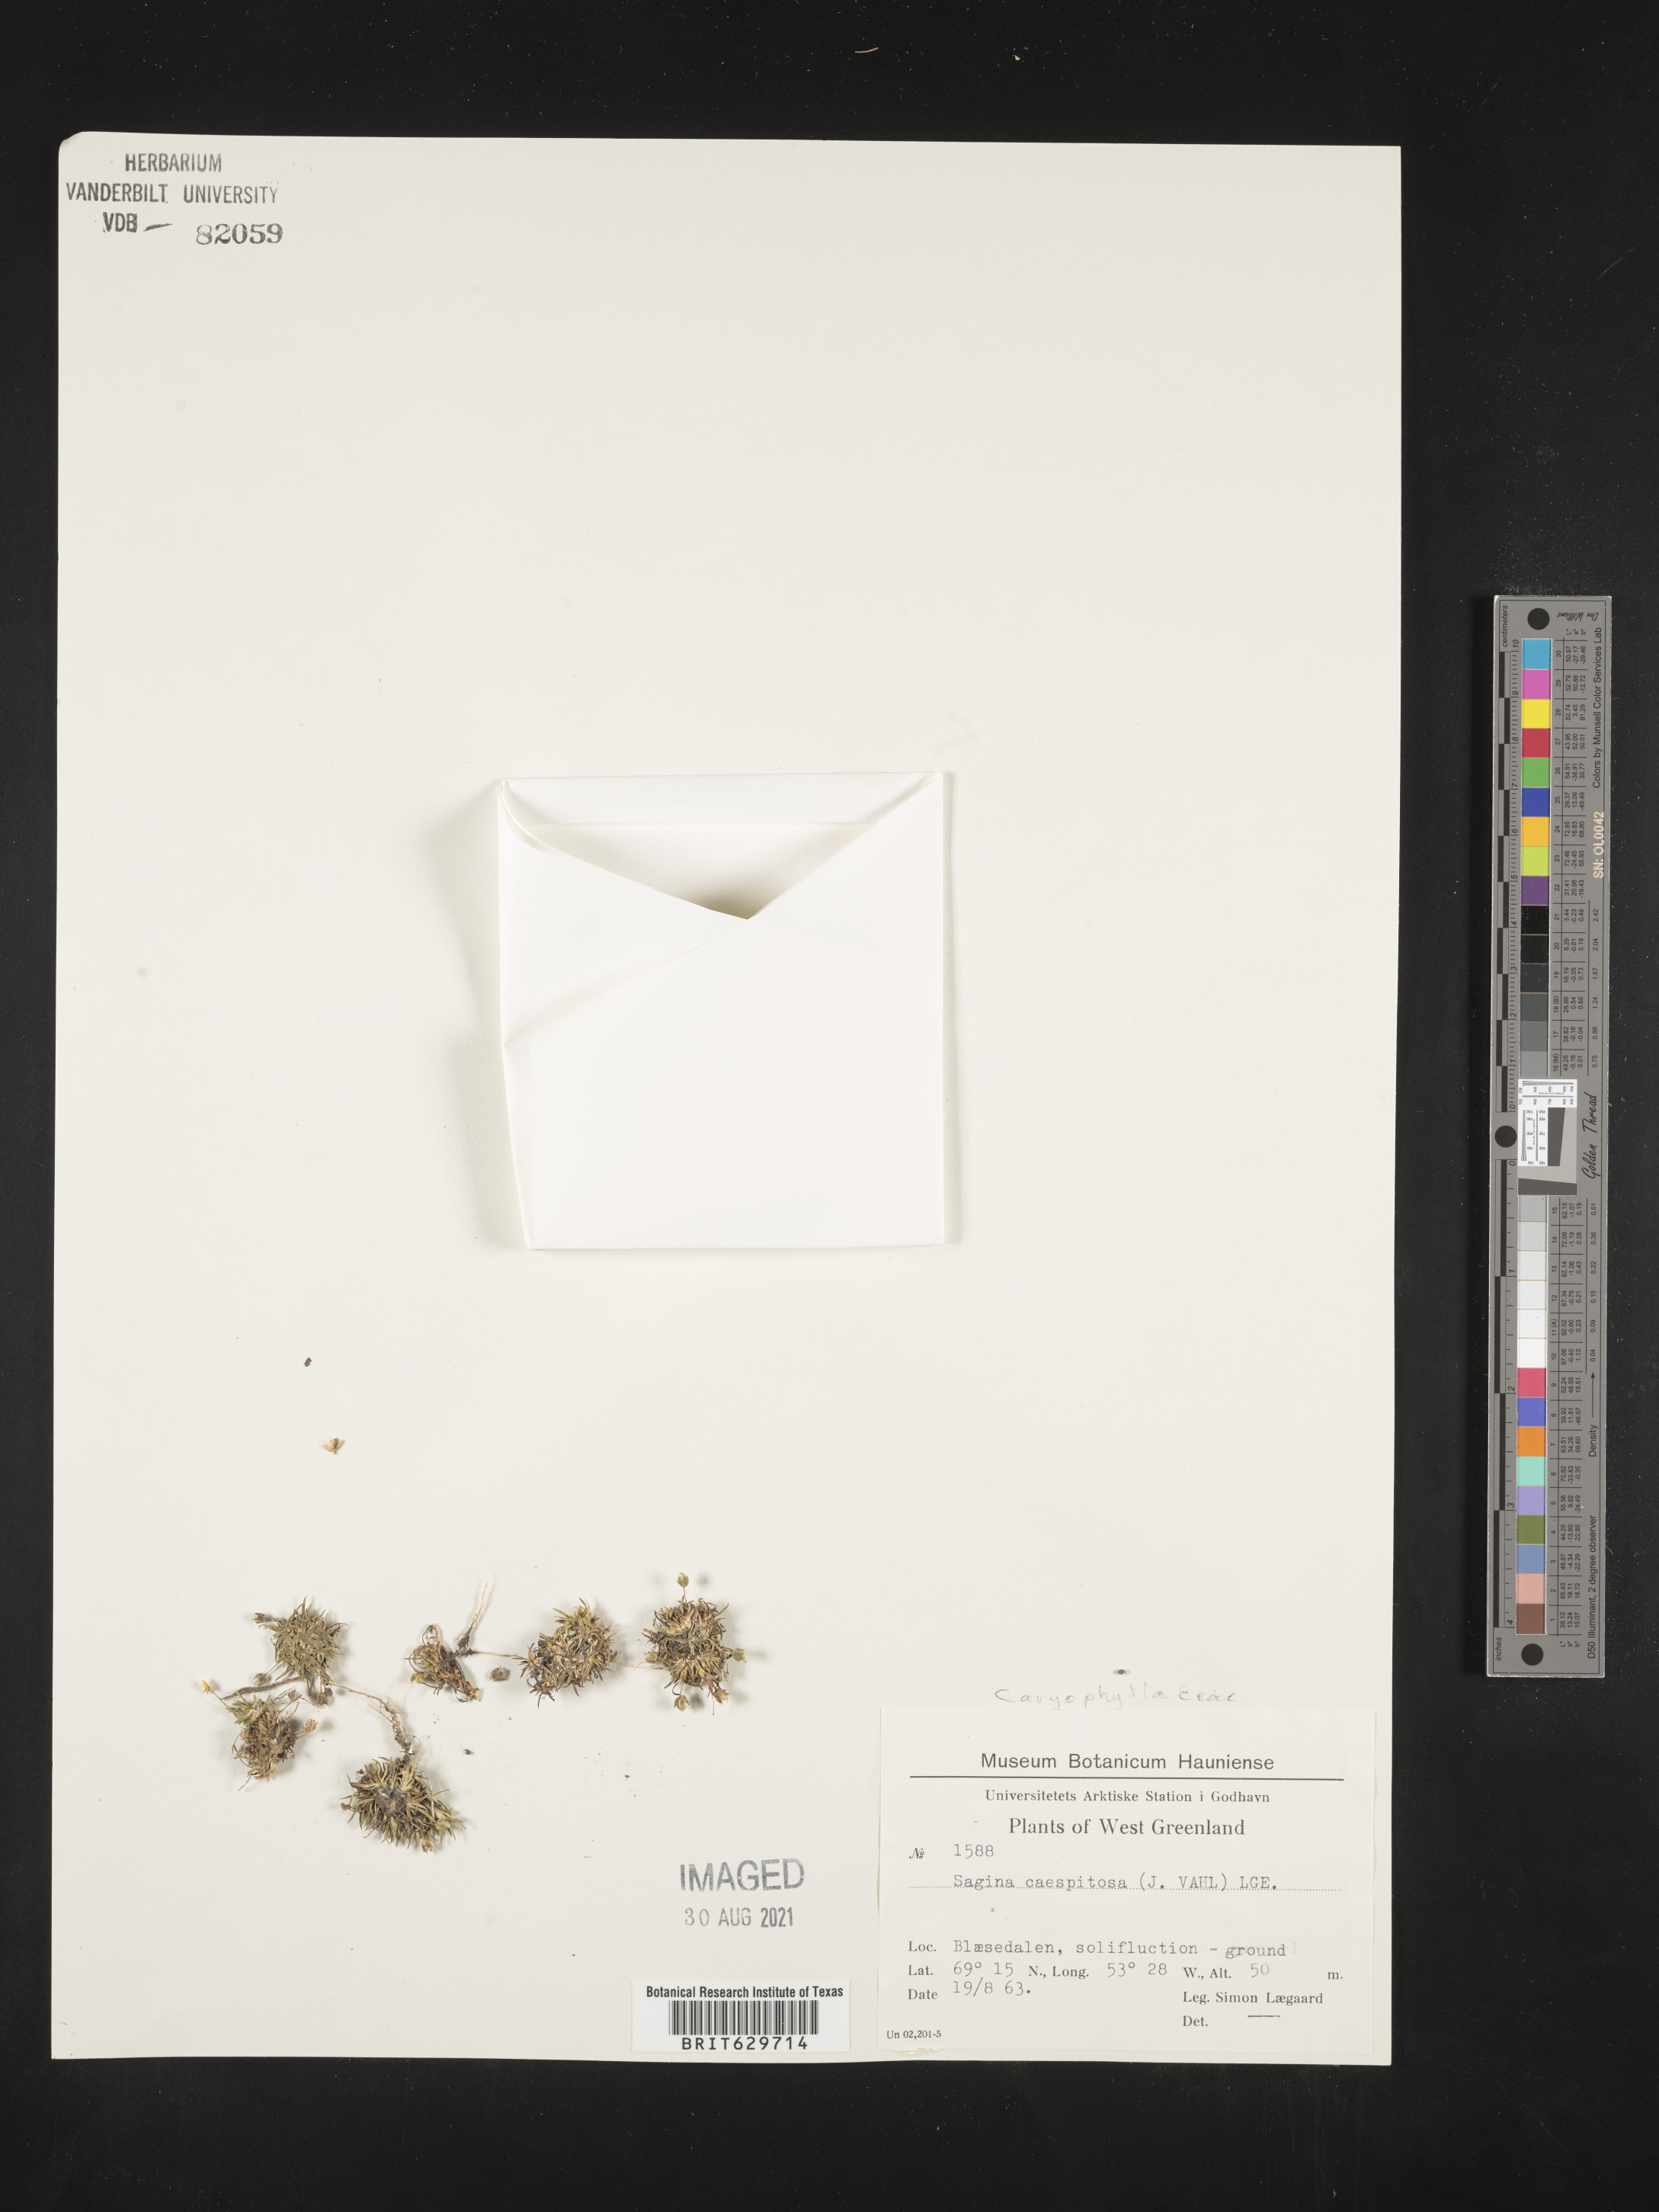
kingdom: Plantae
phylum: Tracheophyta
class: Magnoliopsida
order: Caryophyllales
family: Caryophyllaceae
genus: Sagina
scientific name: Sagina caespitosa
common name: Tufted pearlwort
